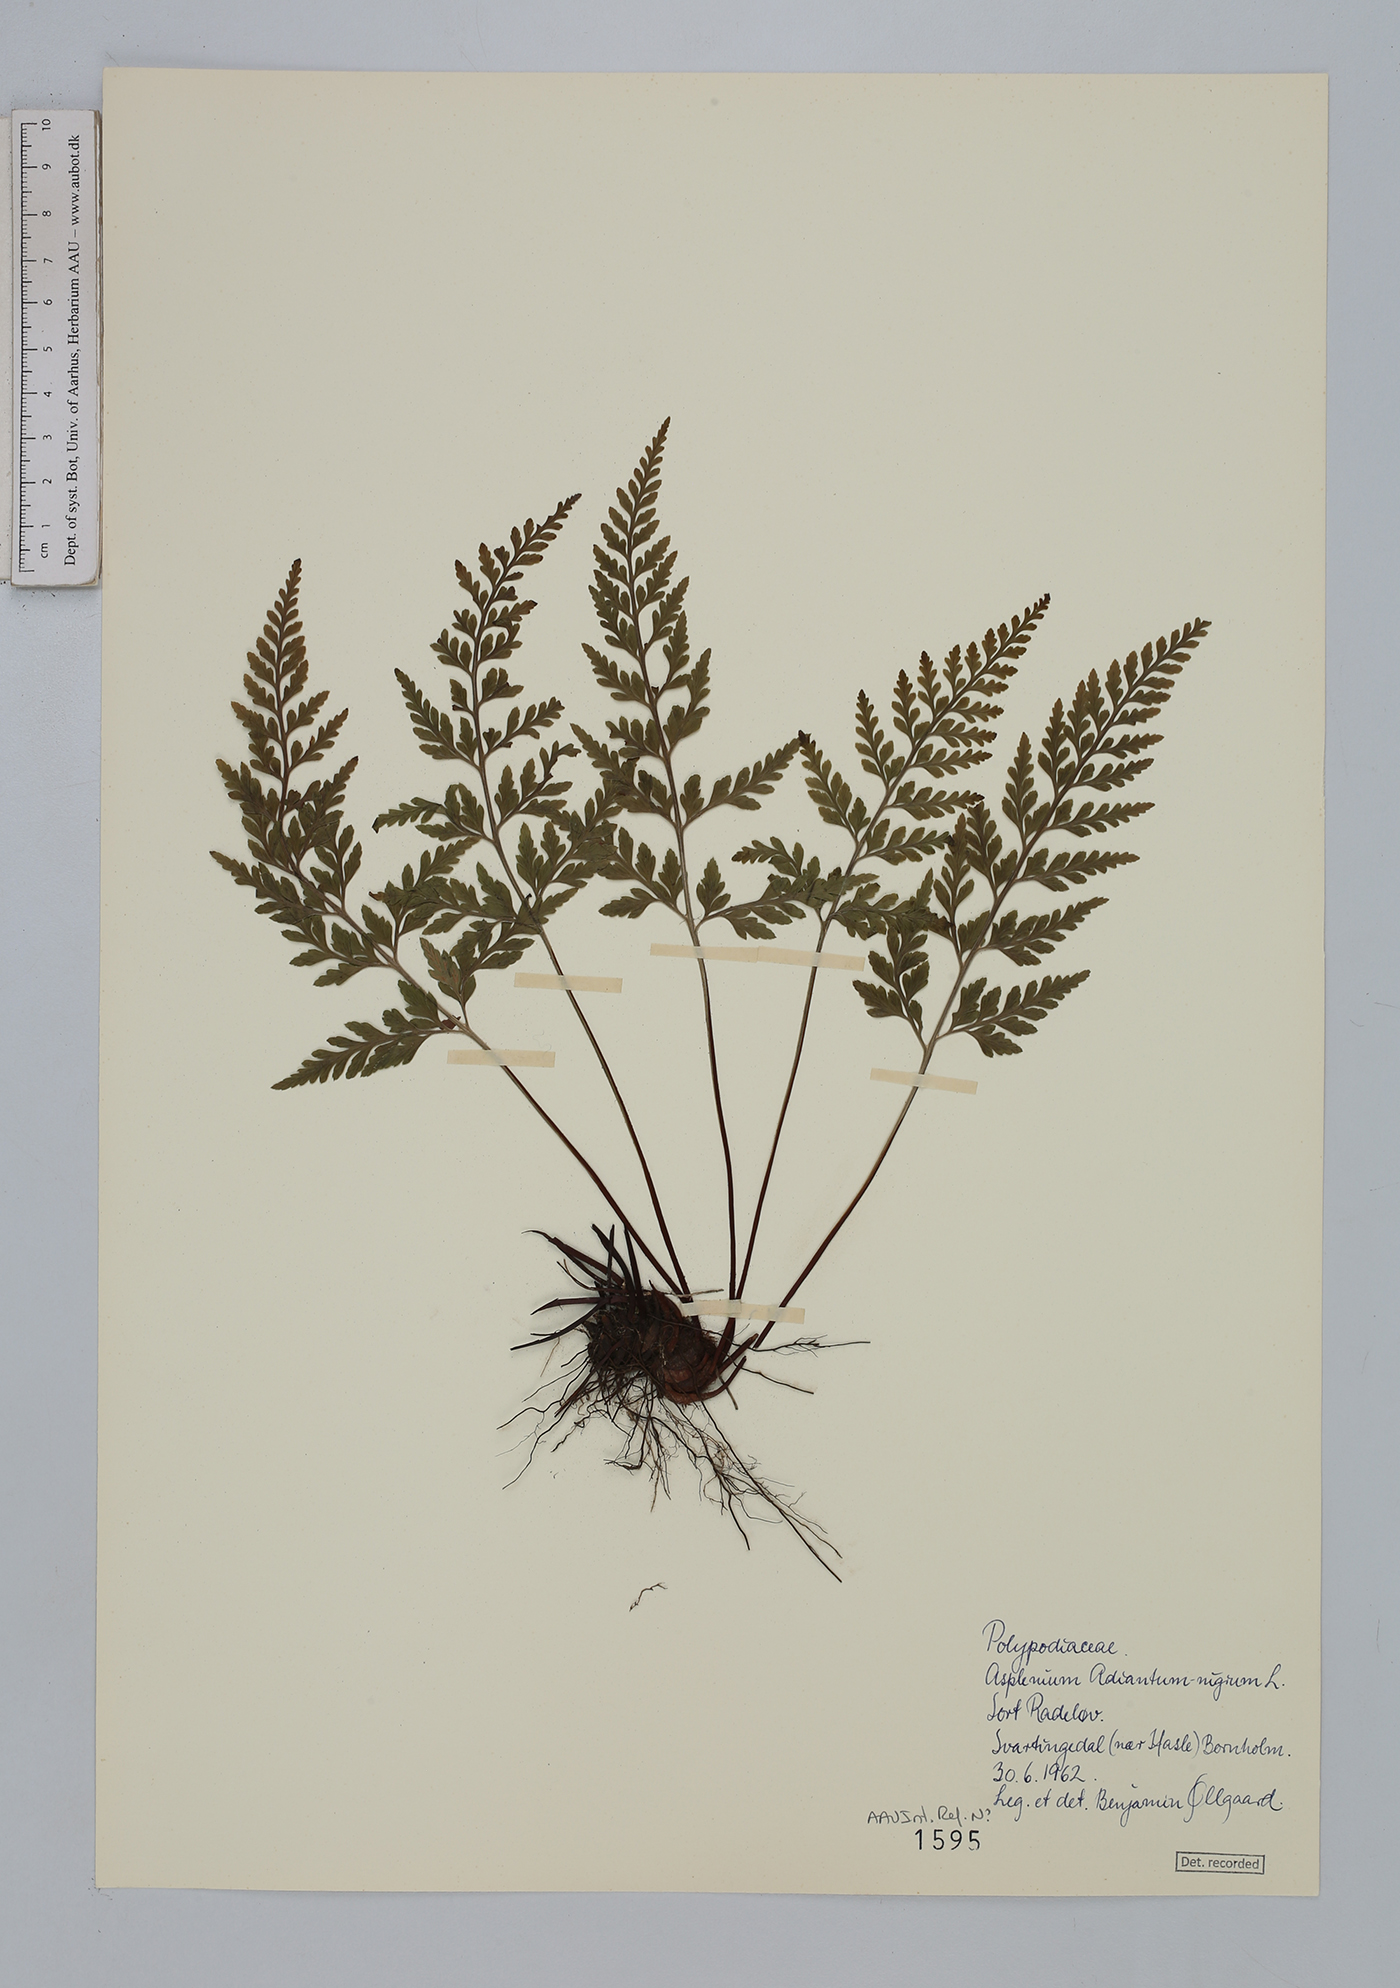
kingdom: Plantae
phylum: Tracheophyta
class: Polypodiopsida
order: Polypodiales
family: Aspleniaceae
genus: Asplenium
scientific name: Asplenium adiantum-nigrum
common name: Black spleenwort
